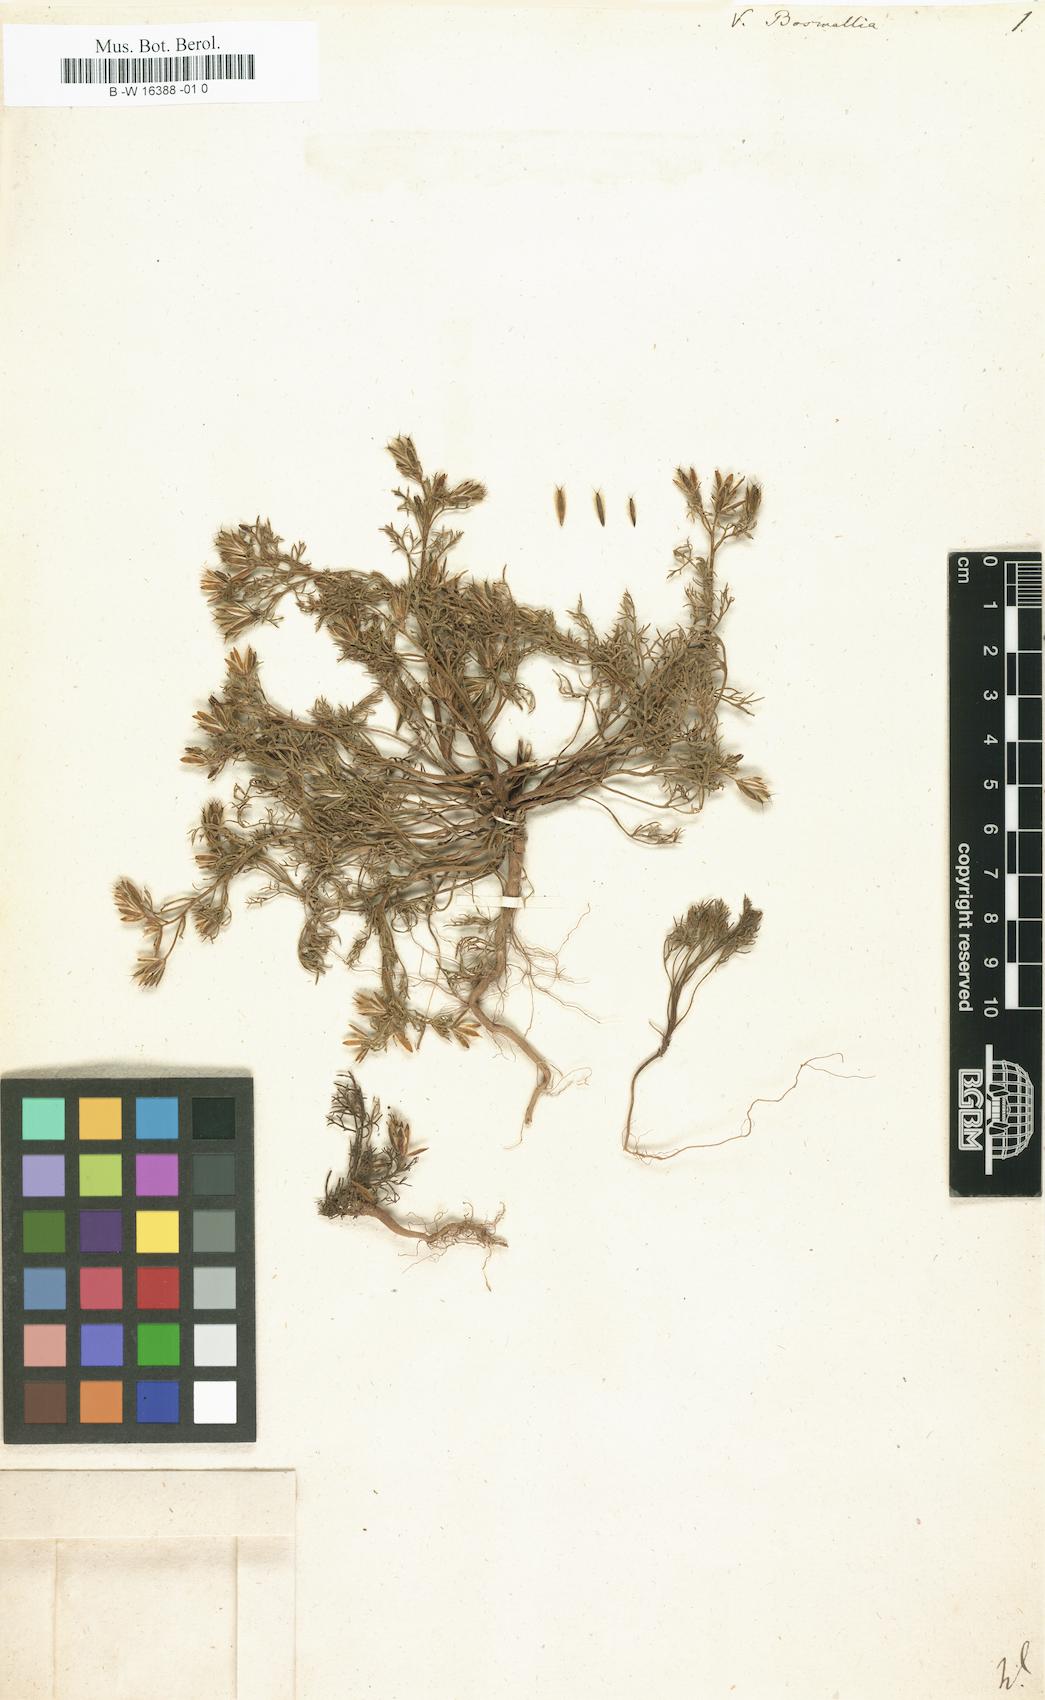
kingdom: Plantae
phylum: Tracheophyta
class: Magnoliopsida
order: Asterales
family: Asteraceae
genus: Glossocardia
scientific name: Glossocardia bosvallia
